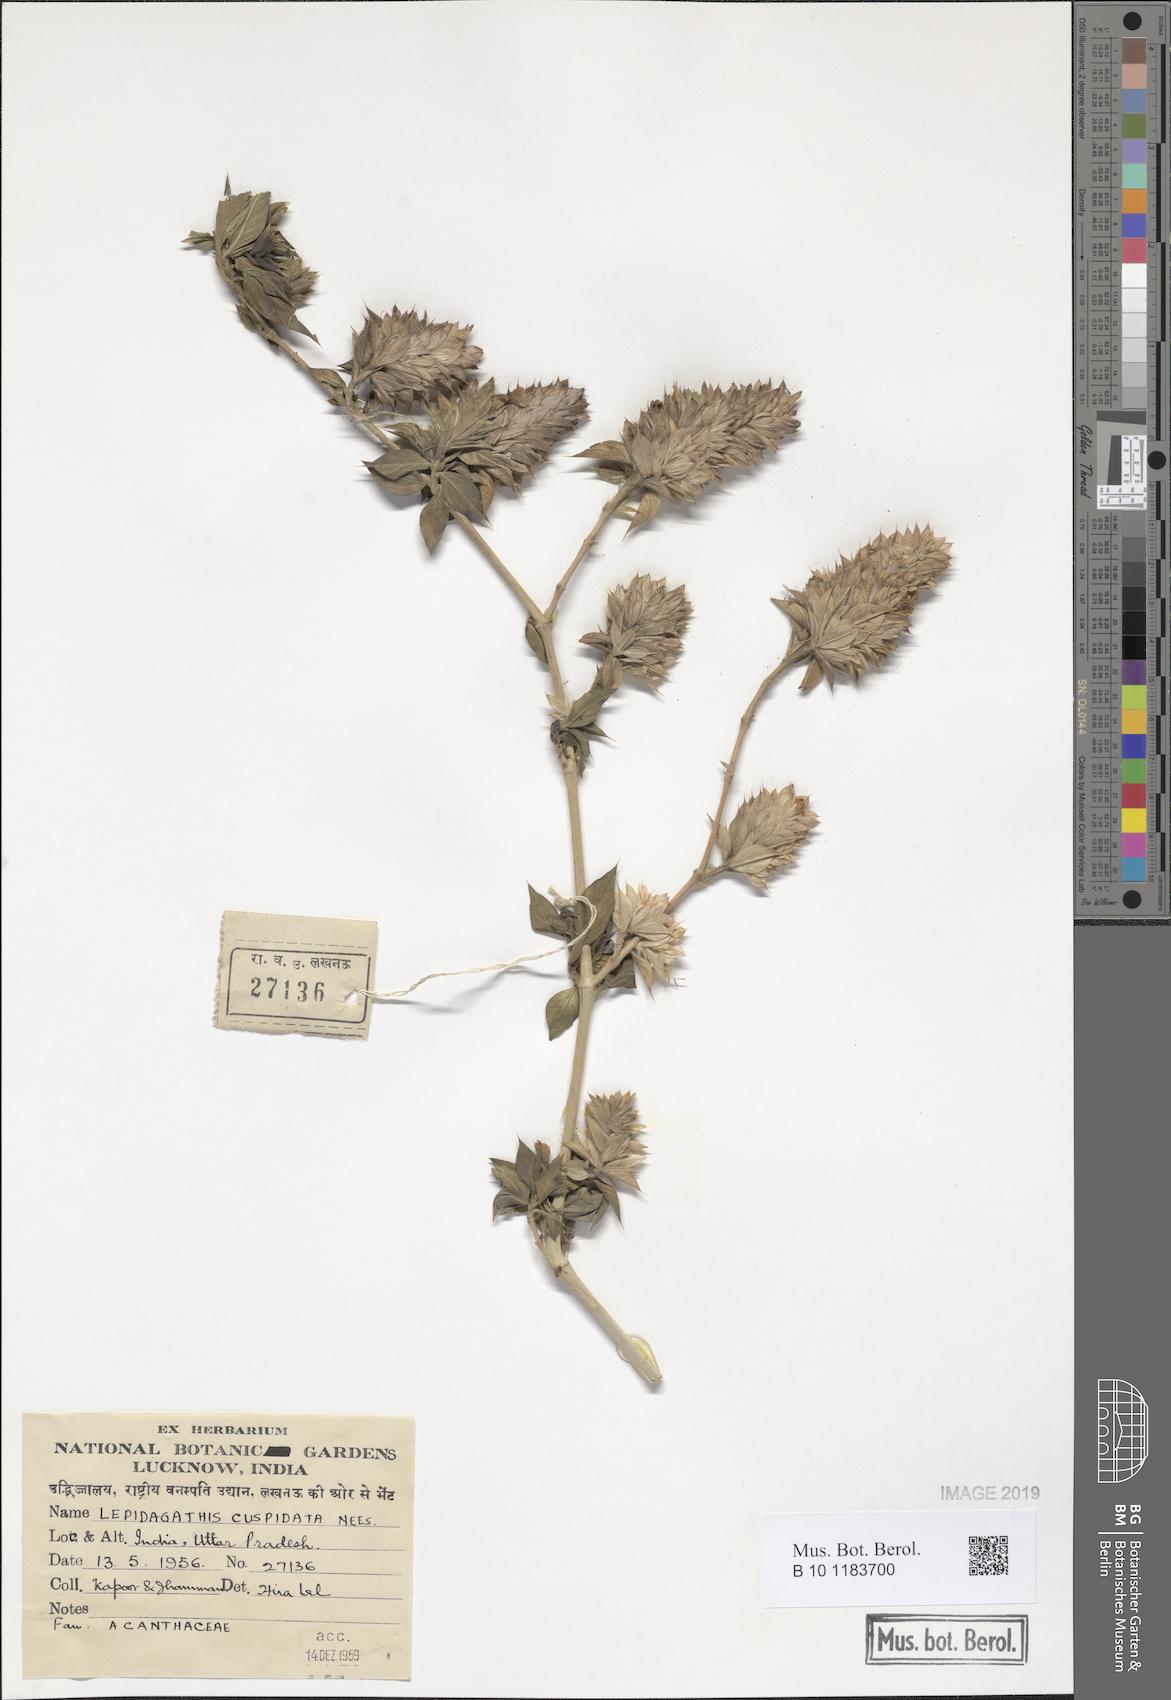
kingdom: Plantae
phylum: Tracheophyta
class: Magnoliopsida
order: Lamiales
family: Acanthaceae
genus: Lepidagathis
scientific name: Lepidagathis cuspidata
